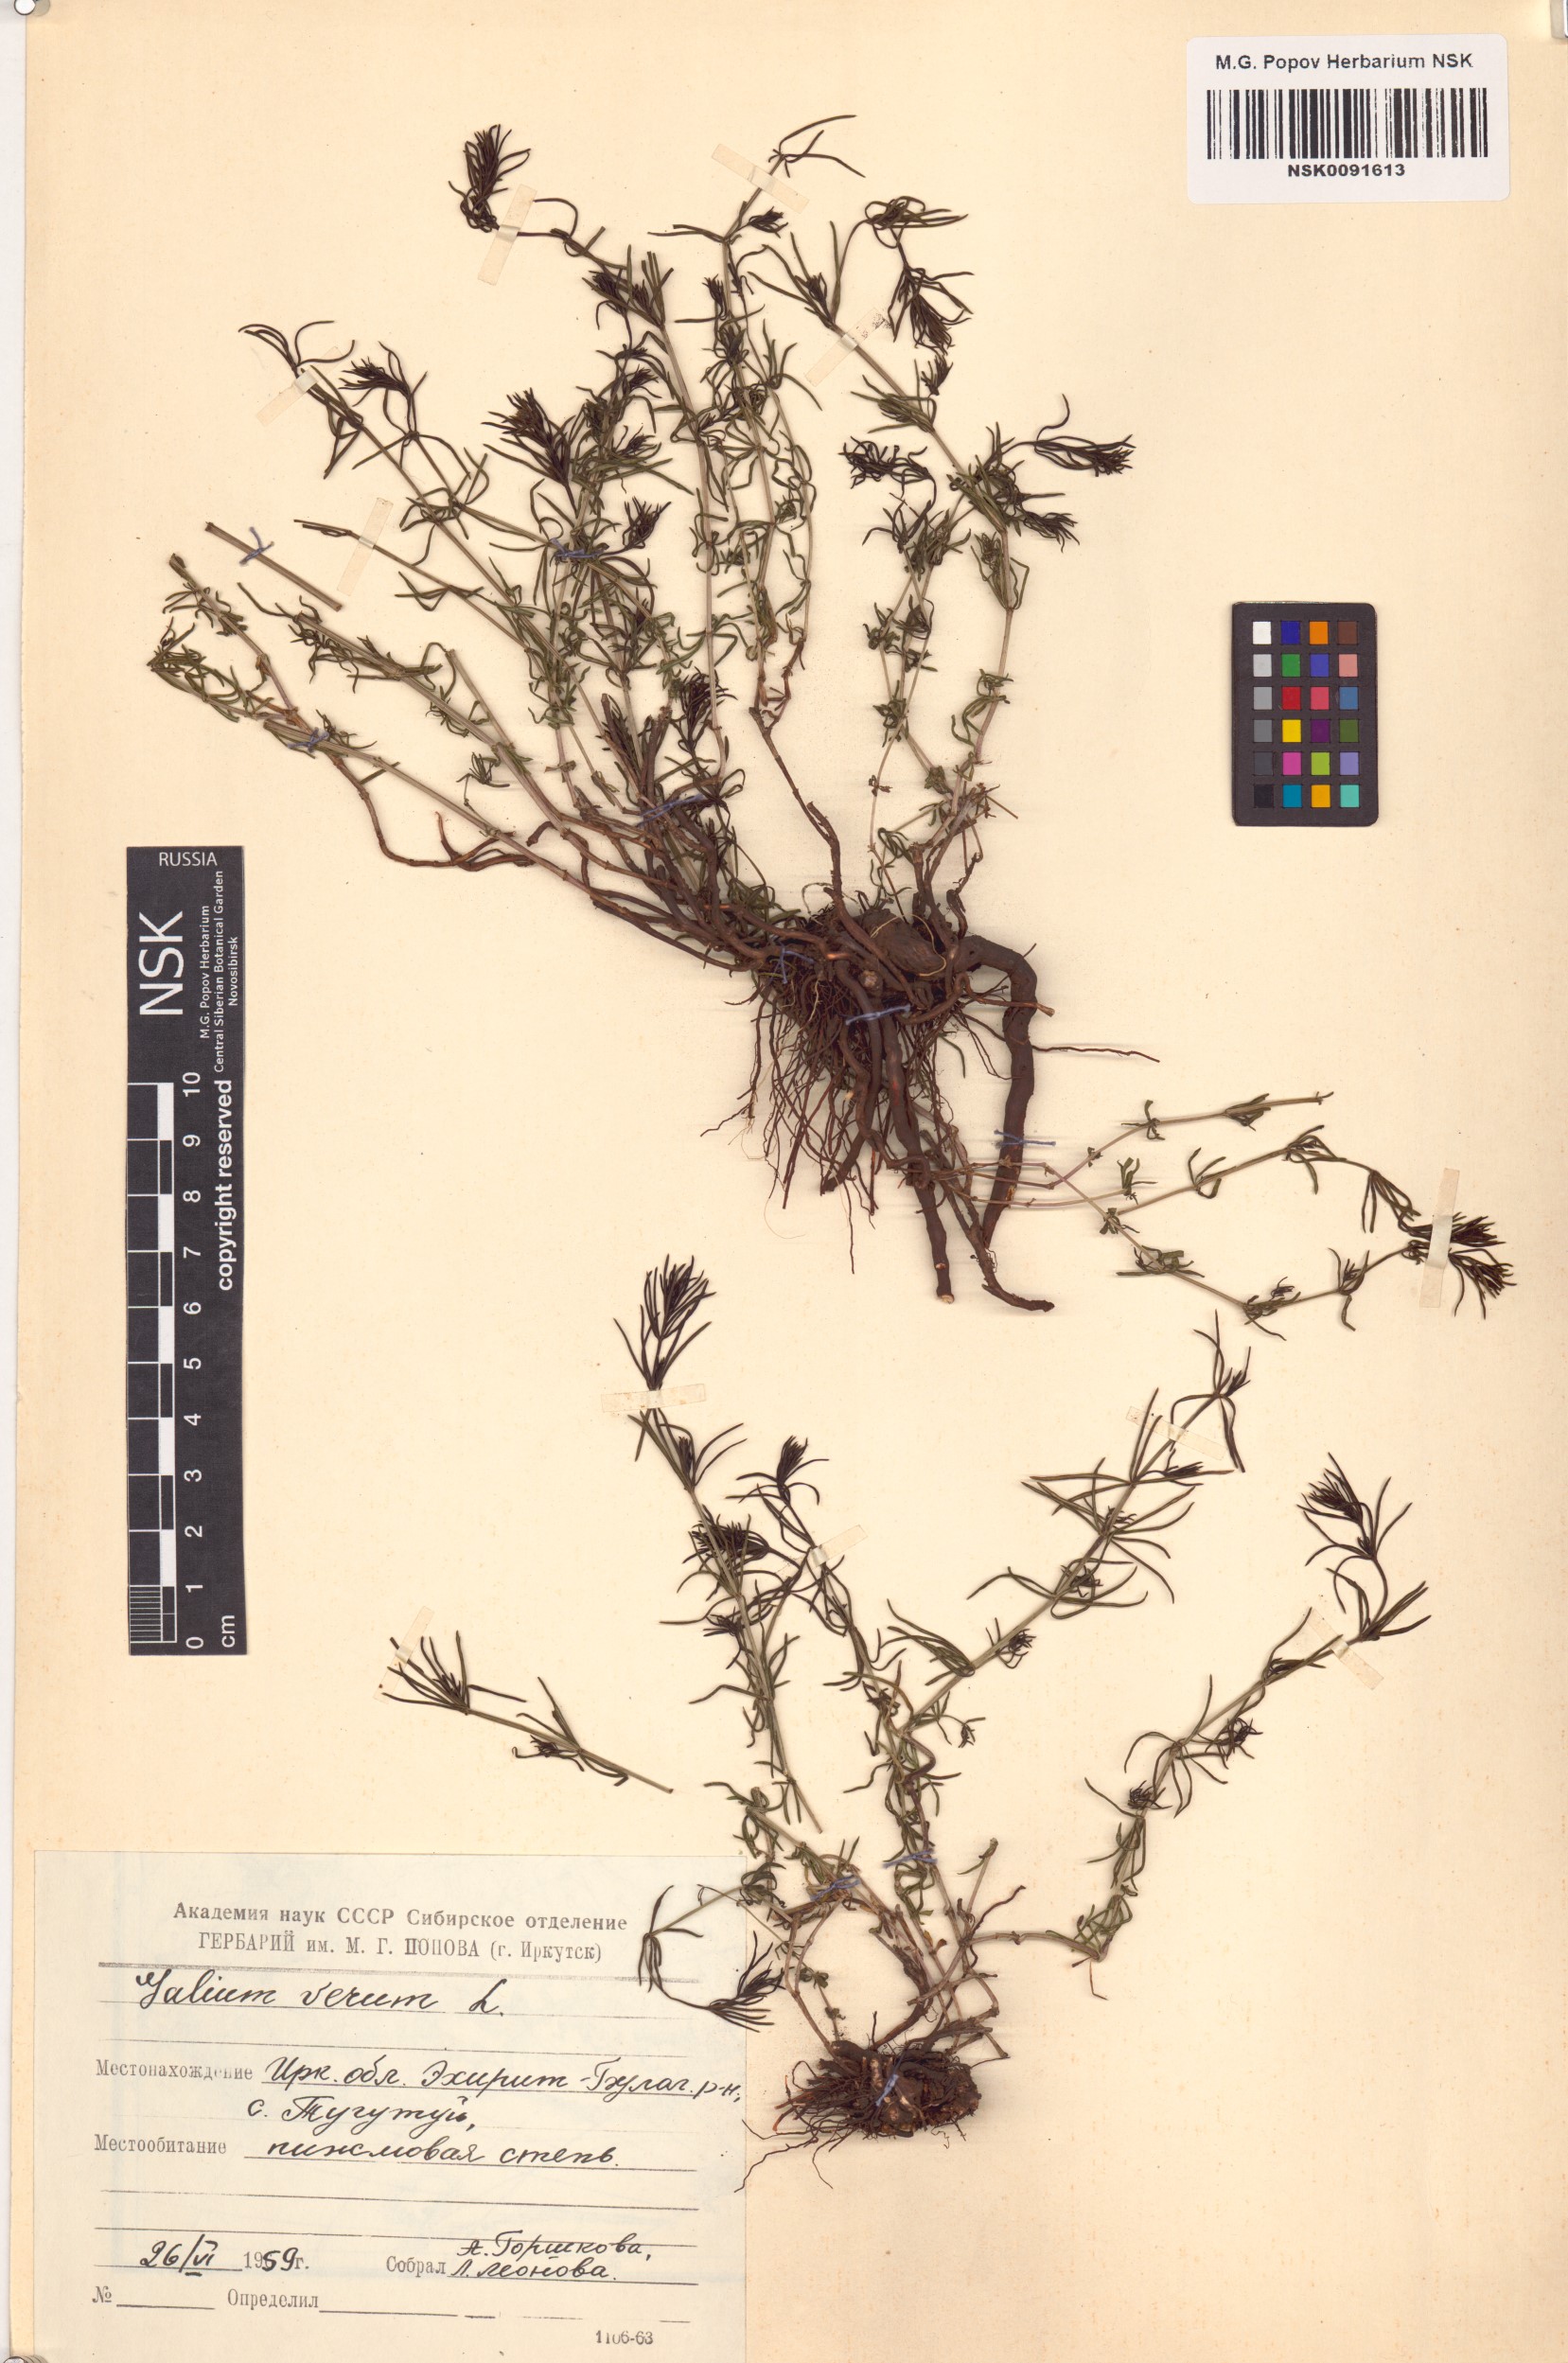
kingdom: Plantae
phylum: Tracheophyta
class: Magnoliopsida
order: Gentianales
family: Rubiaceae
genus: Galium
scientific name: Galium verum
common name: Lady's bedstraw
